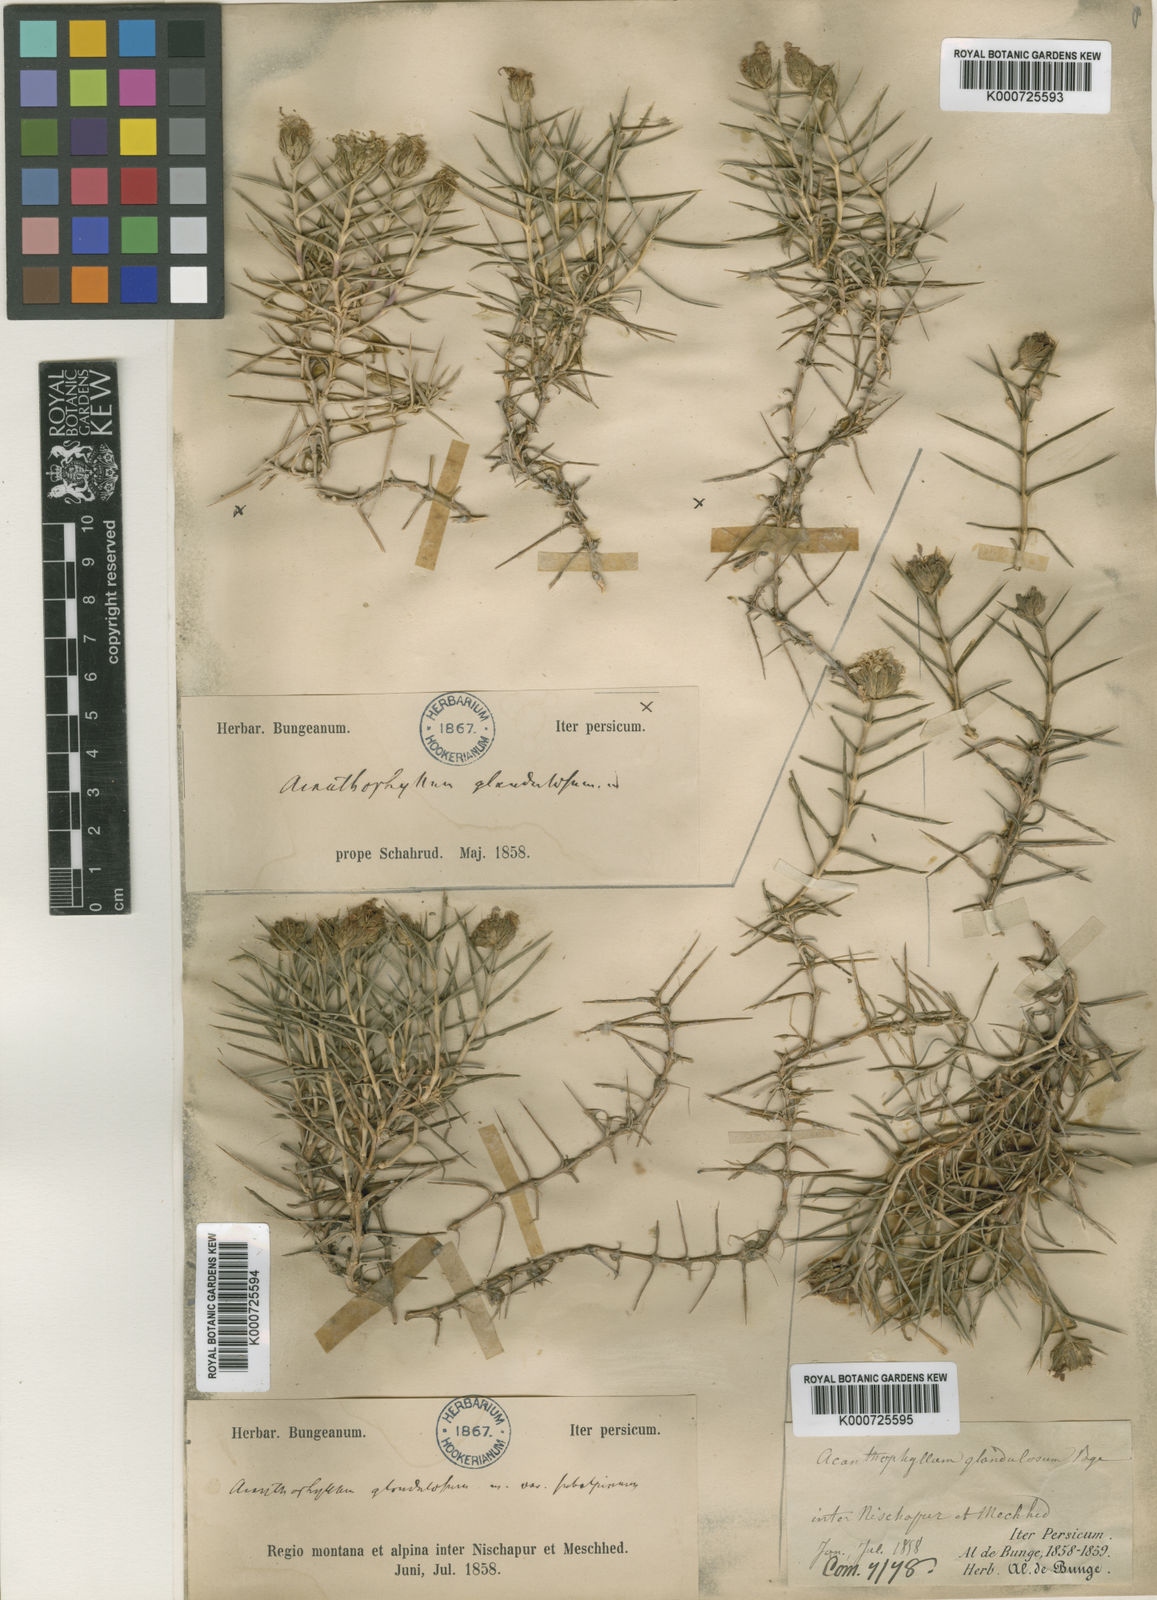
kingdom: Plantae
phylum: Tracheophyta
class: Magnoliopsida
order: Caryophyllales
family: Caryophyllaceae
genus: Acanthophyllum
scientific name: Acanthophyllum
